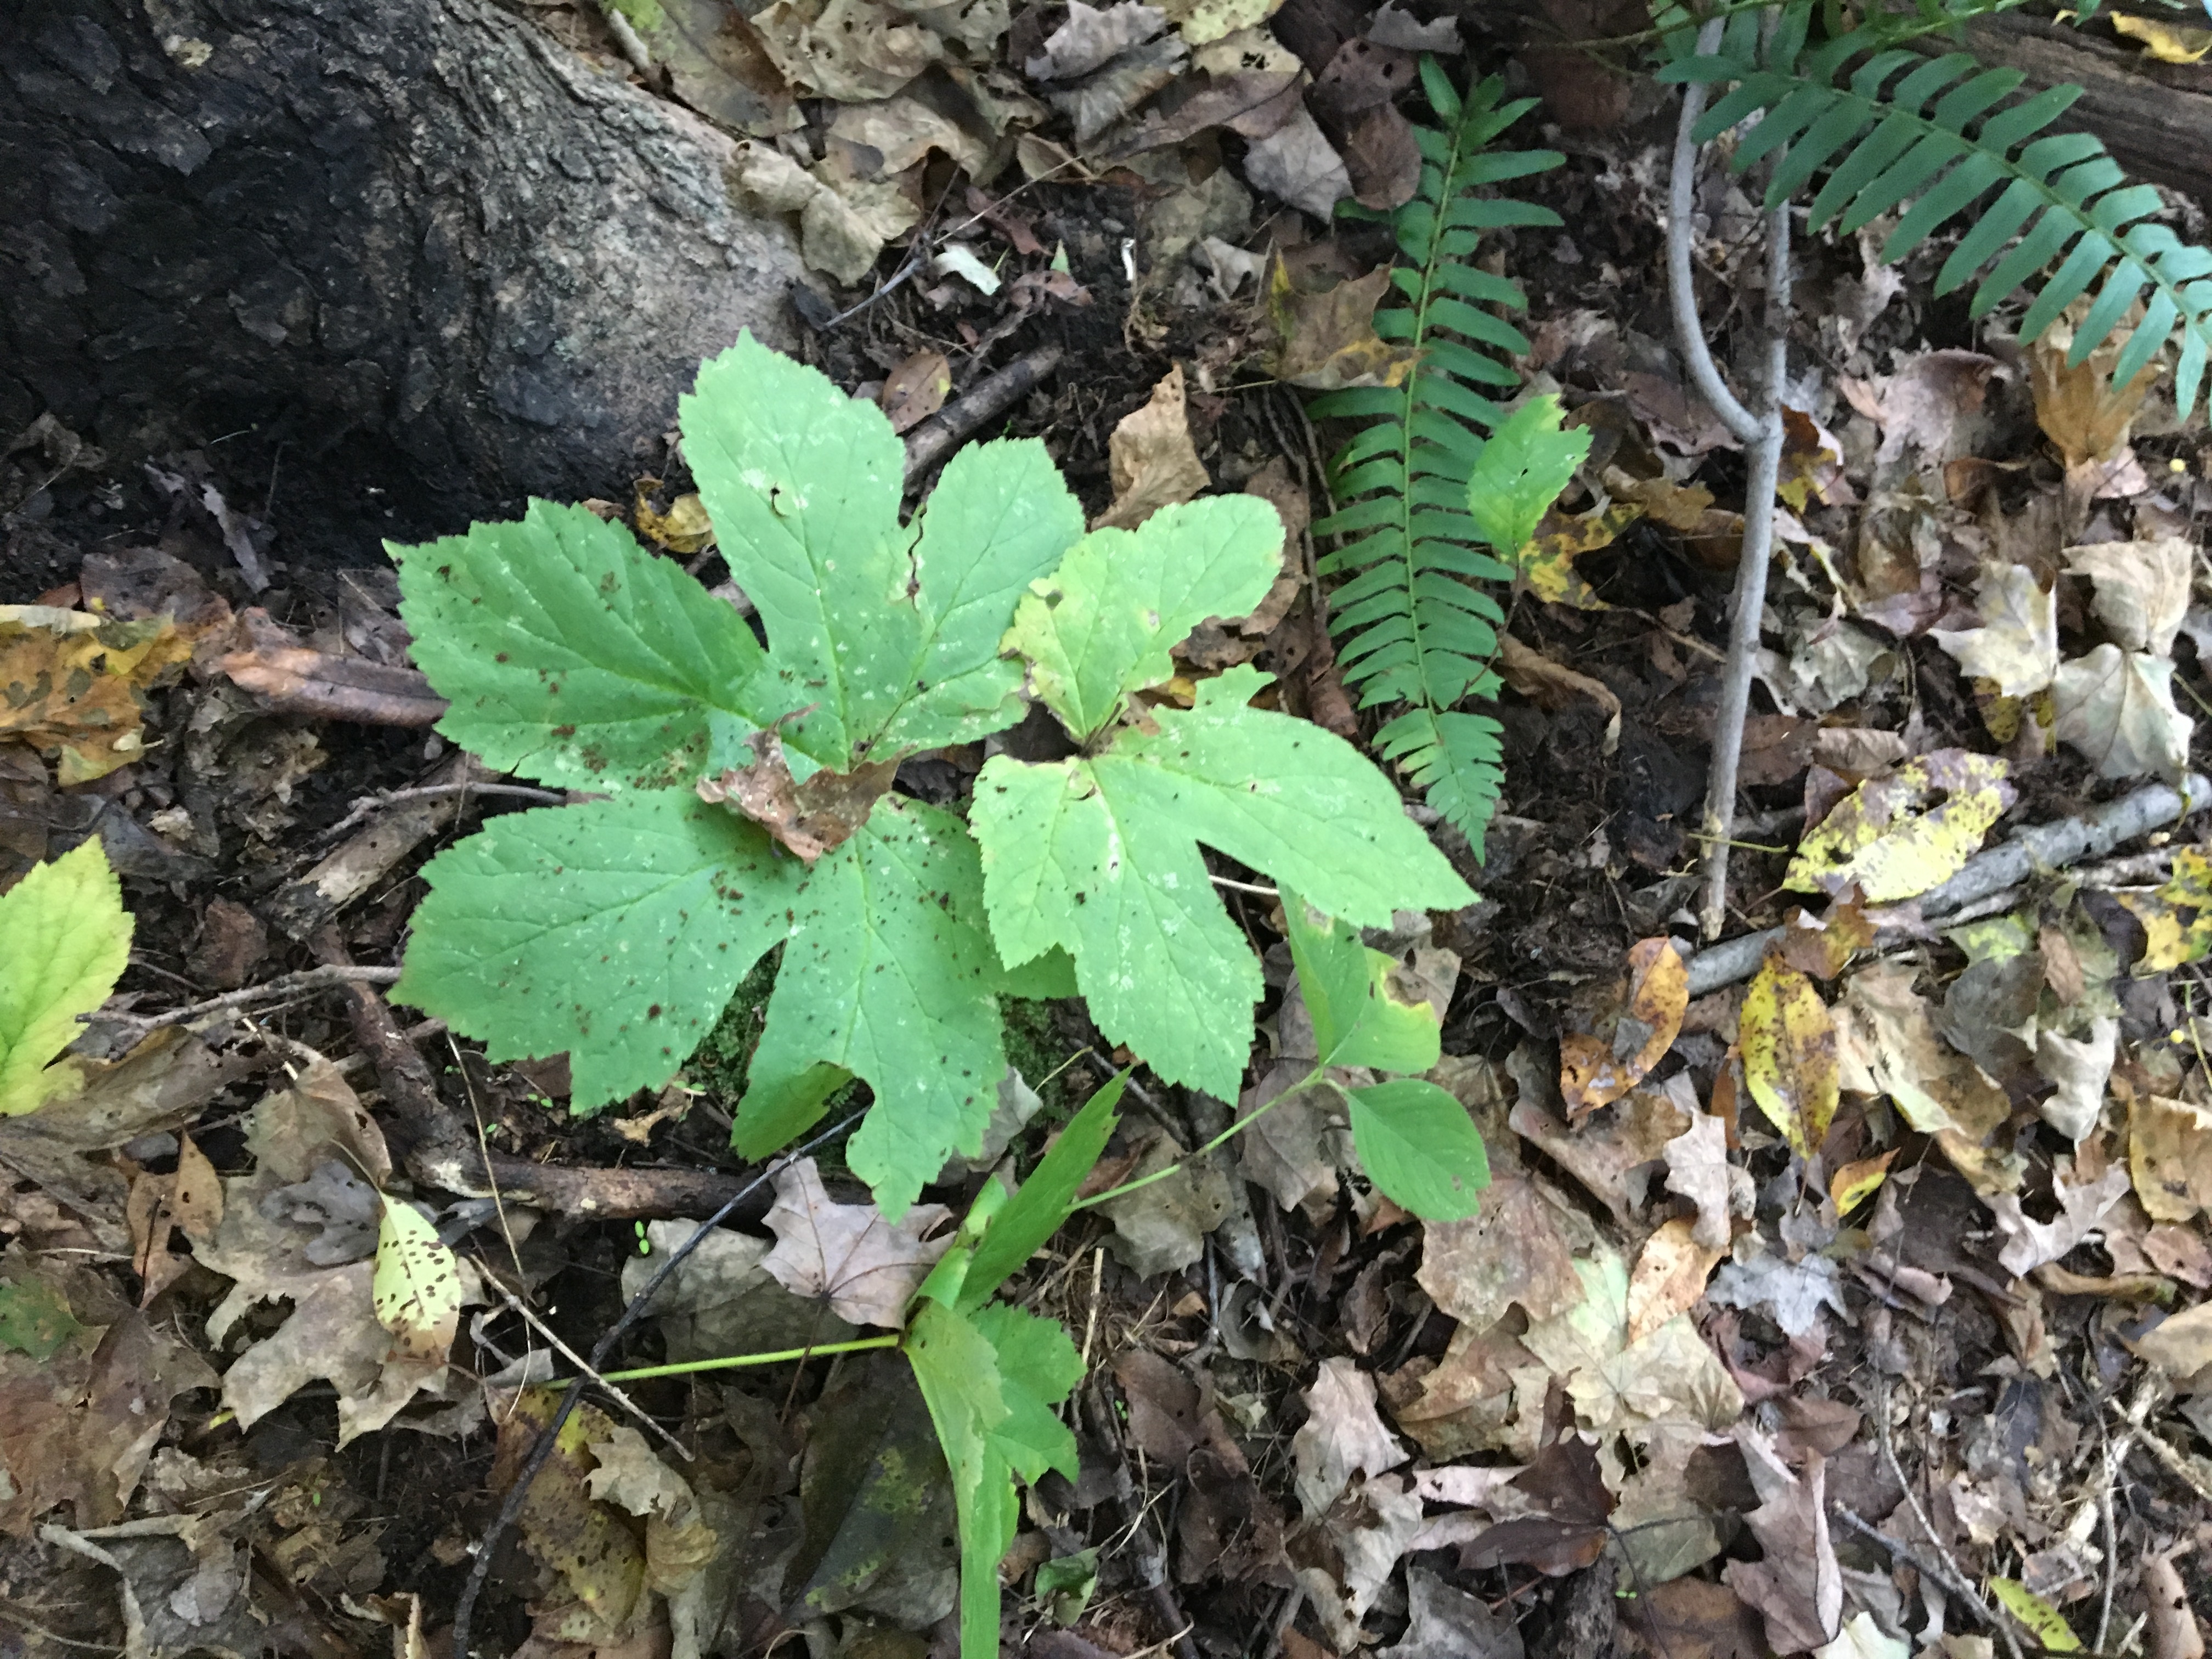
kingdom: Plantae
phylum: Tracheophyta
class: Magnoliopsida
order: Ranunculales
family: Ranunculaceae
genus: Hydrastis
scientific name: Hydrastis canadensis
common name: Goldenseal
